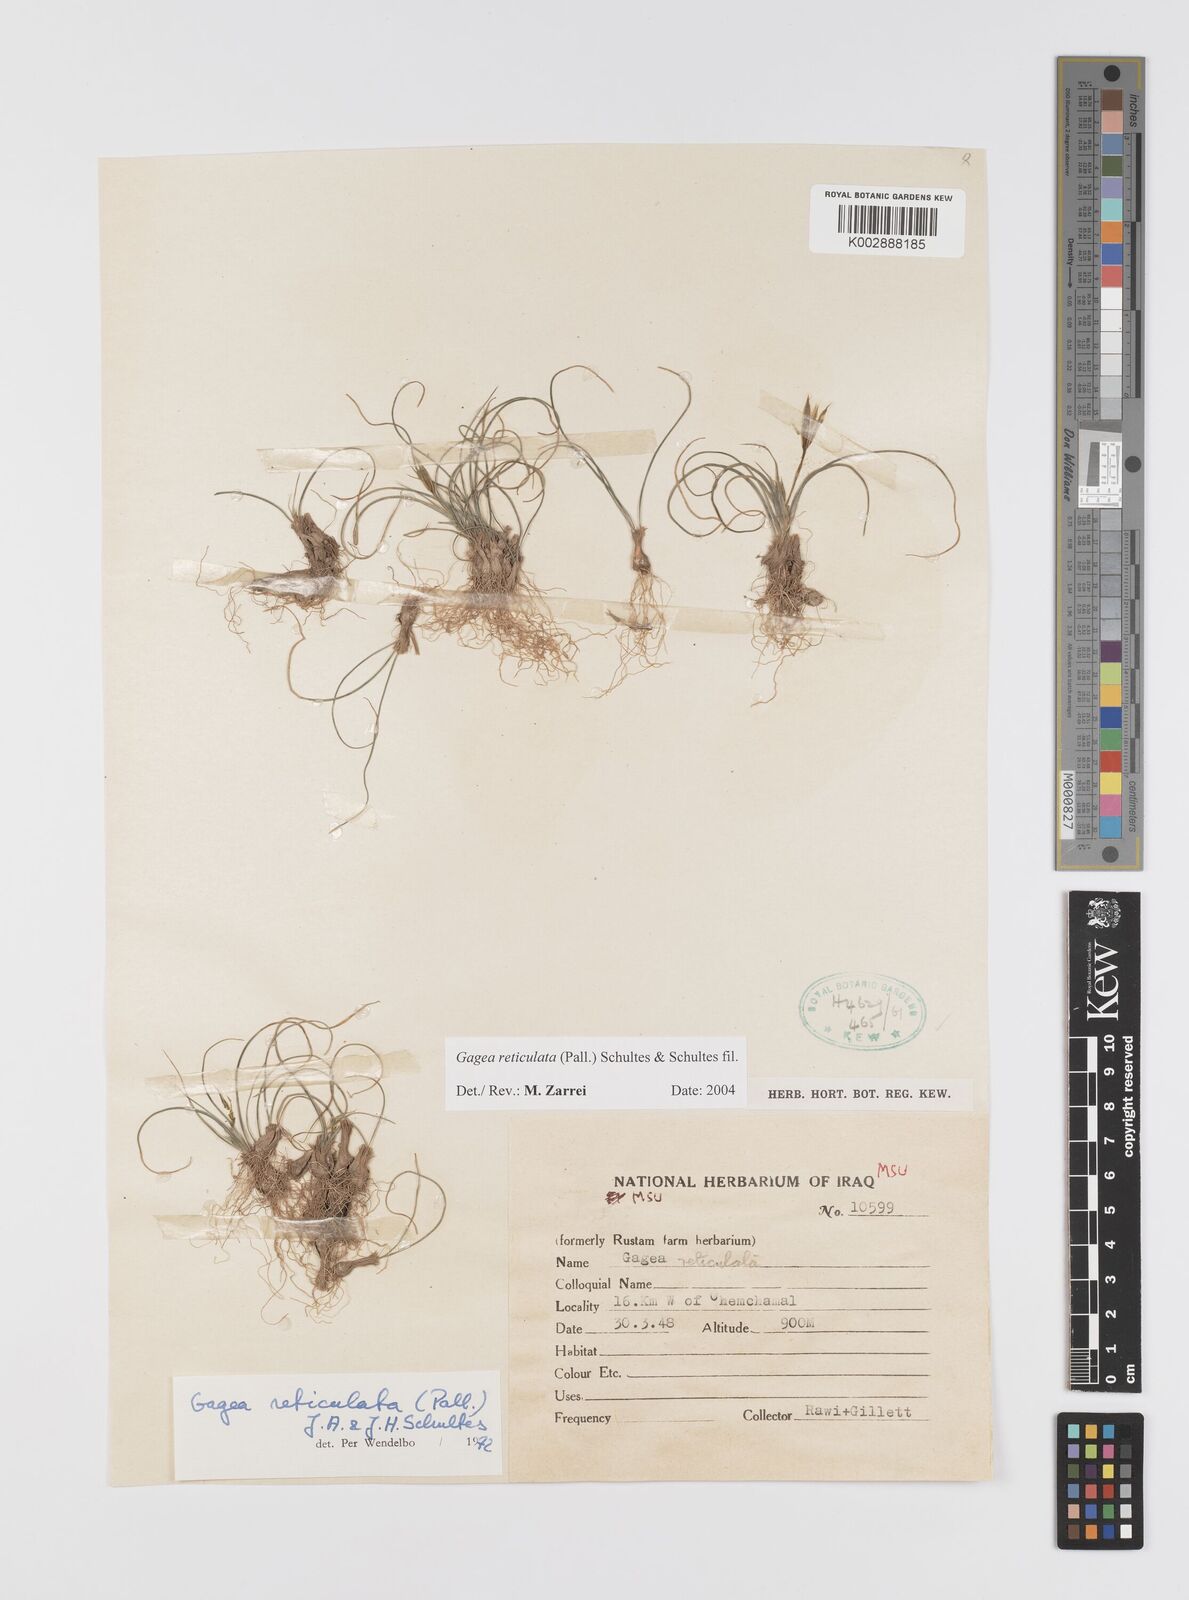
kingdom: Plantae
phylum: Tracheophyta
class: Liliopsida
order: Liliales
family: Liliaceae
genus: Gagea
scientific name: Gagea reticulata
